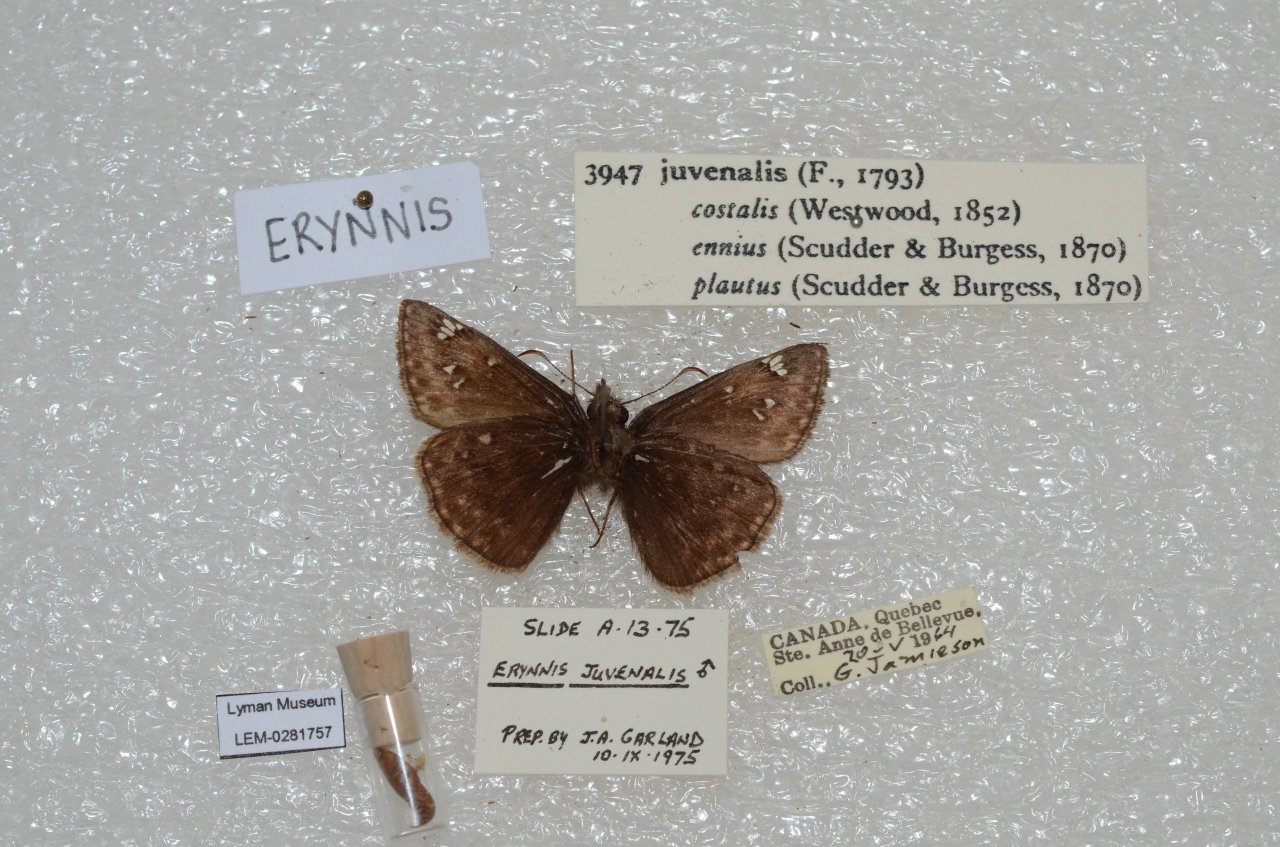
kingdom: Animalia
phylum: Arthropoda
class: Insecta
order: Lepidoptera
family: Hesperiidae
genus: Gesta
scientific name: Gesta
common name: Juvenal's Duskywing
